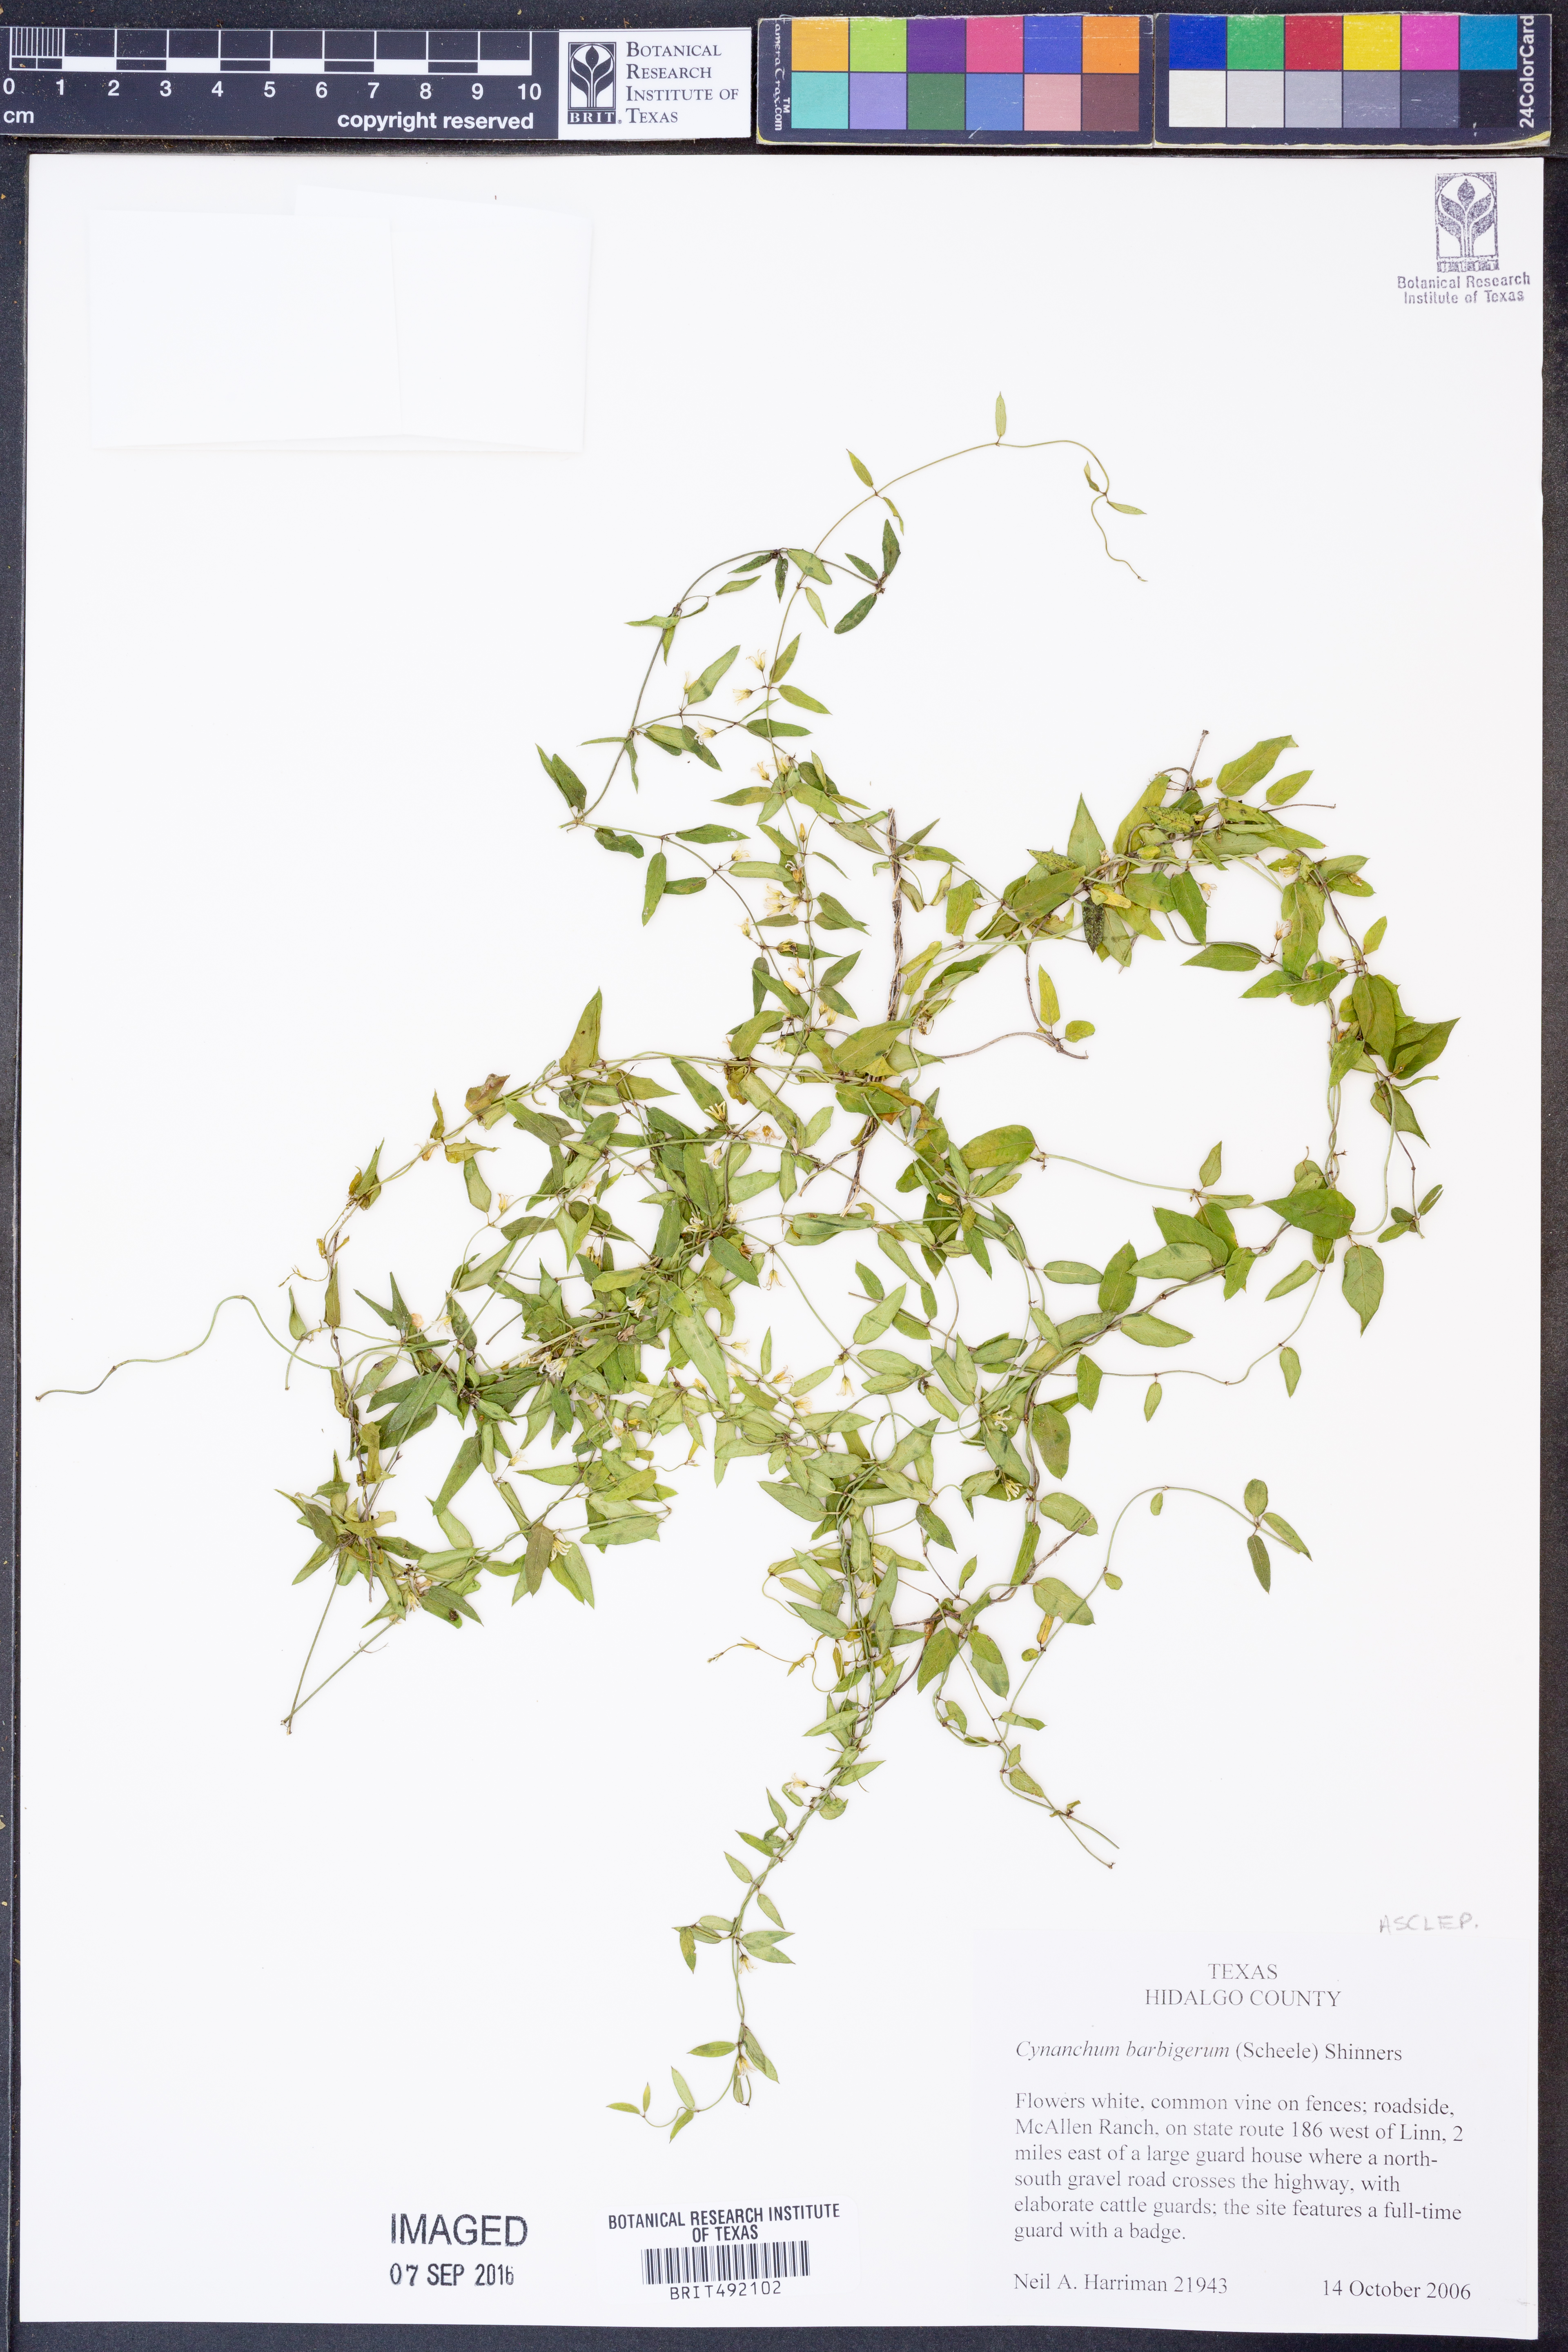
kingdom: Plantae
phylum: Tracheophyta
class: Magnoliopsida
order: Gentianales
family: Apocynaceae
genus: Metastelma
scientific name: Metastelma barbigerum
